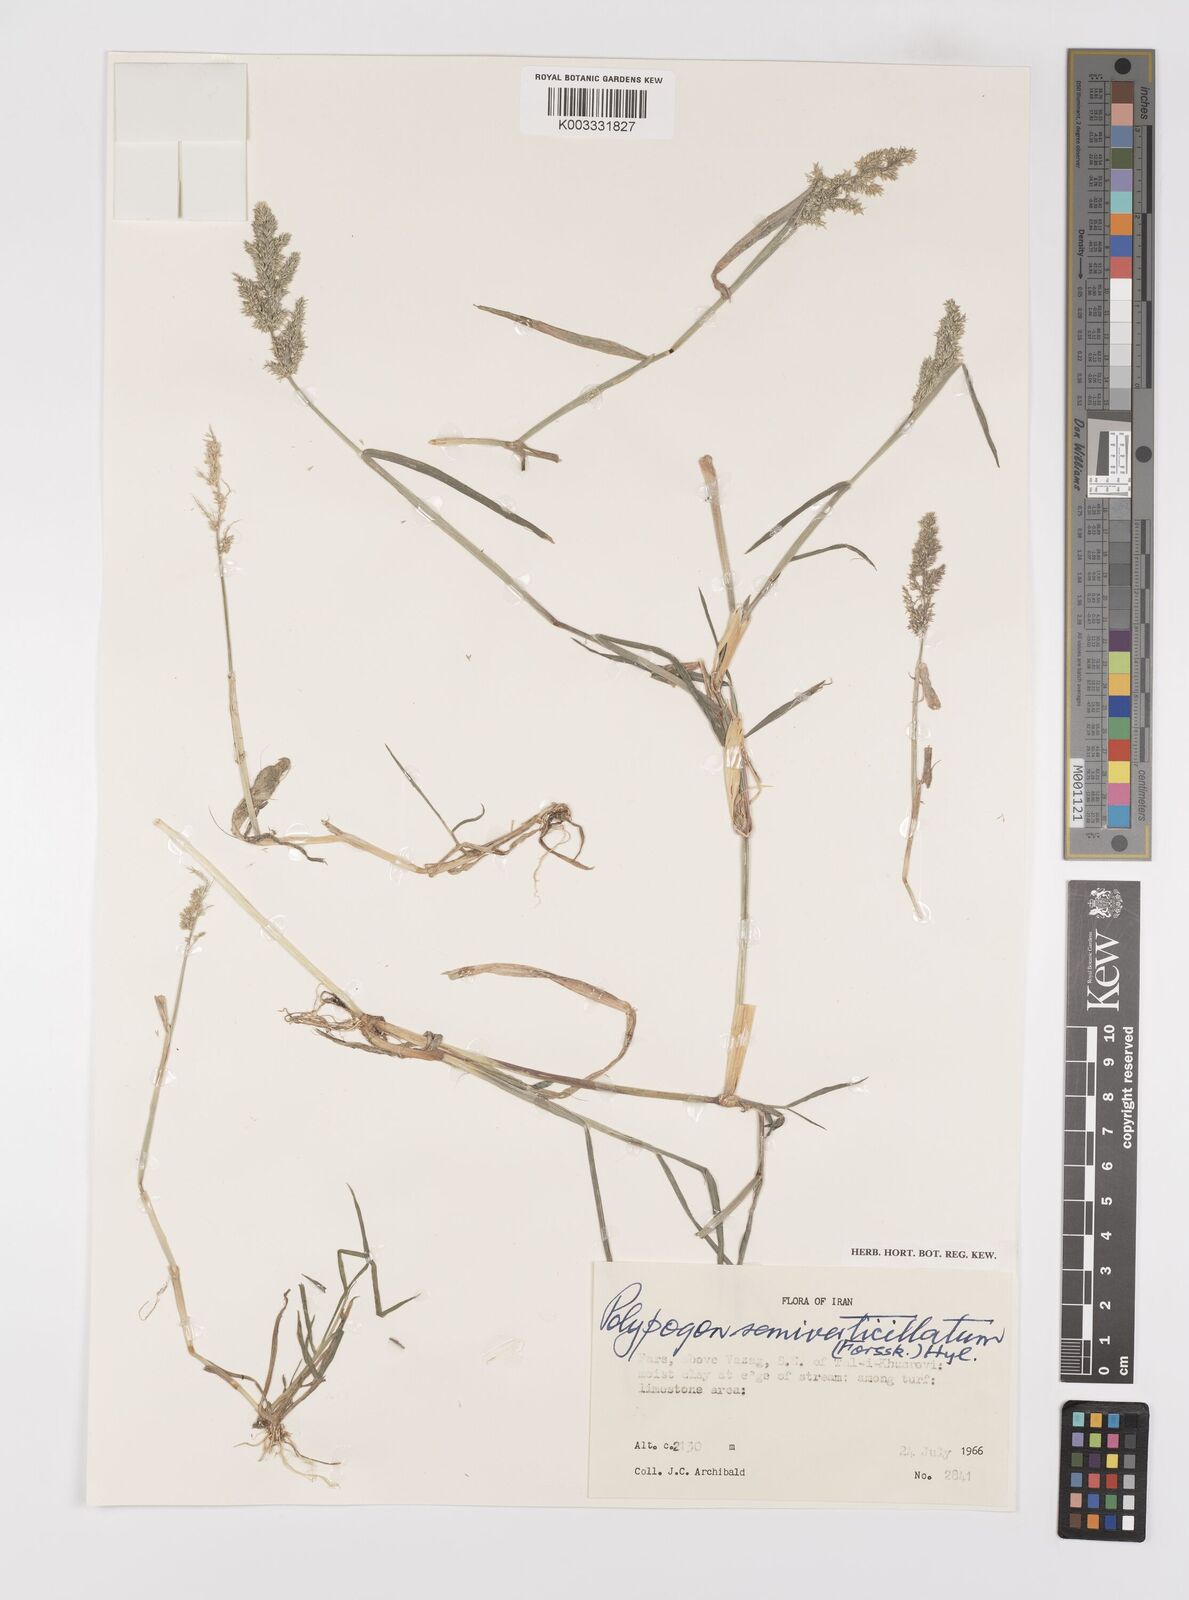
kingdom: Plantae
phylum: Tracheophyta
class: Liliopsida
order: Poales
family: Poaceae
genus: Polypogon
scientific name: Polypogon viridis
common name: Water bent
